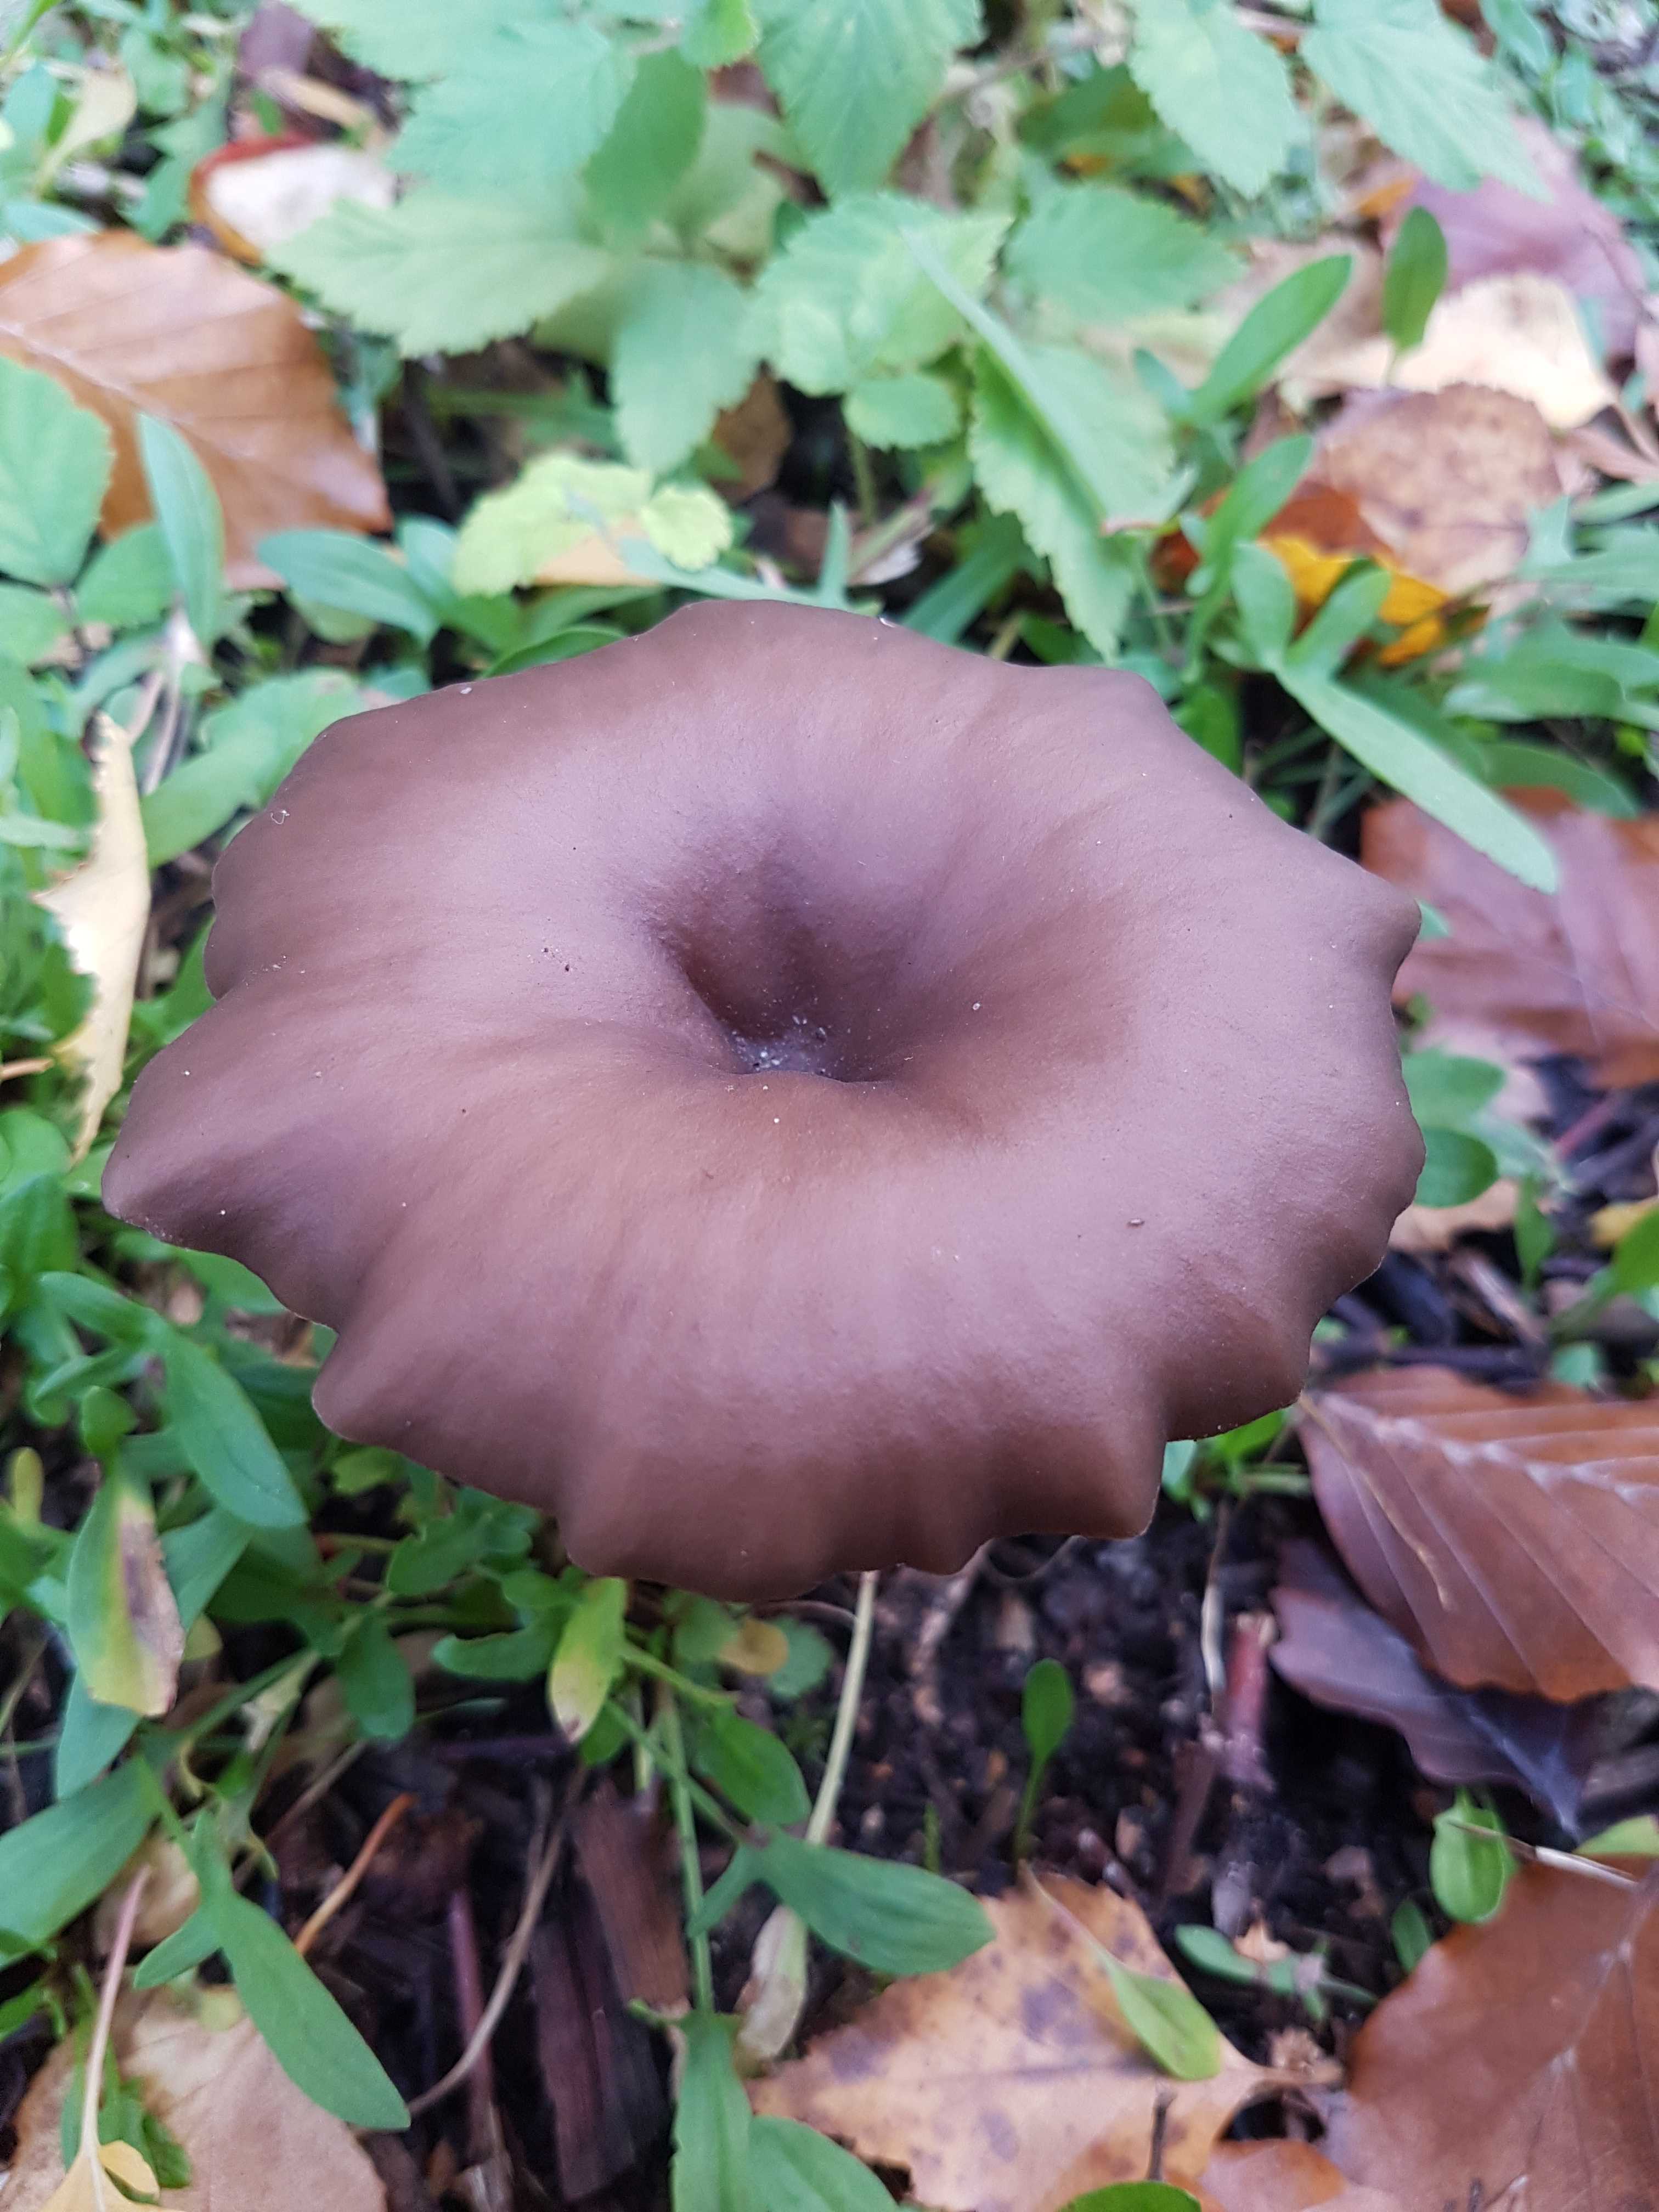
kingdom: Fungi
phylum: Basidiomycota
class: Agaricomycetes
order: Agaricales
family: Pseudoclitocybaceae
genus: Pseudoclitocybe
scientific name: Pseudoclitocybe cyathiformis
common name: almindelig bægertragthat
